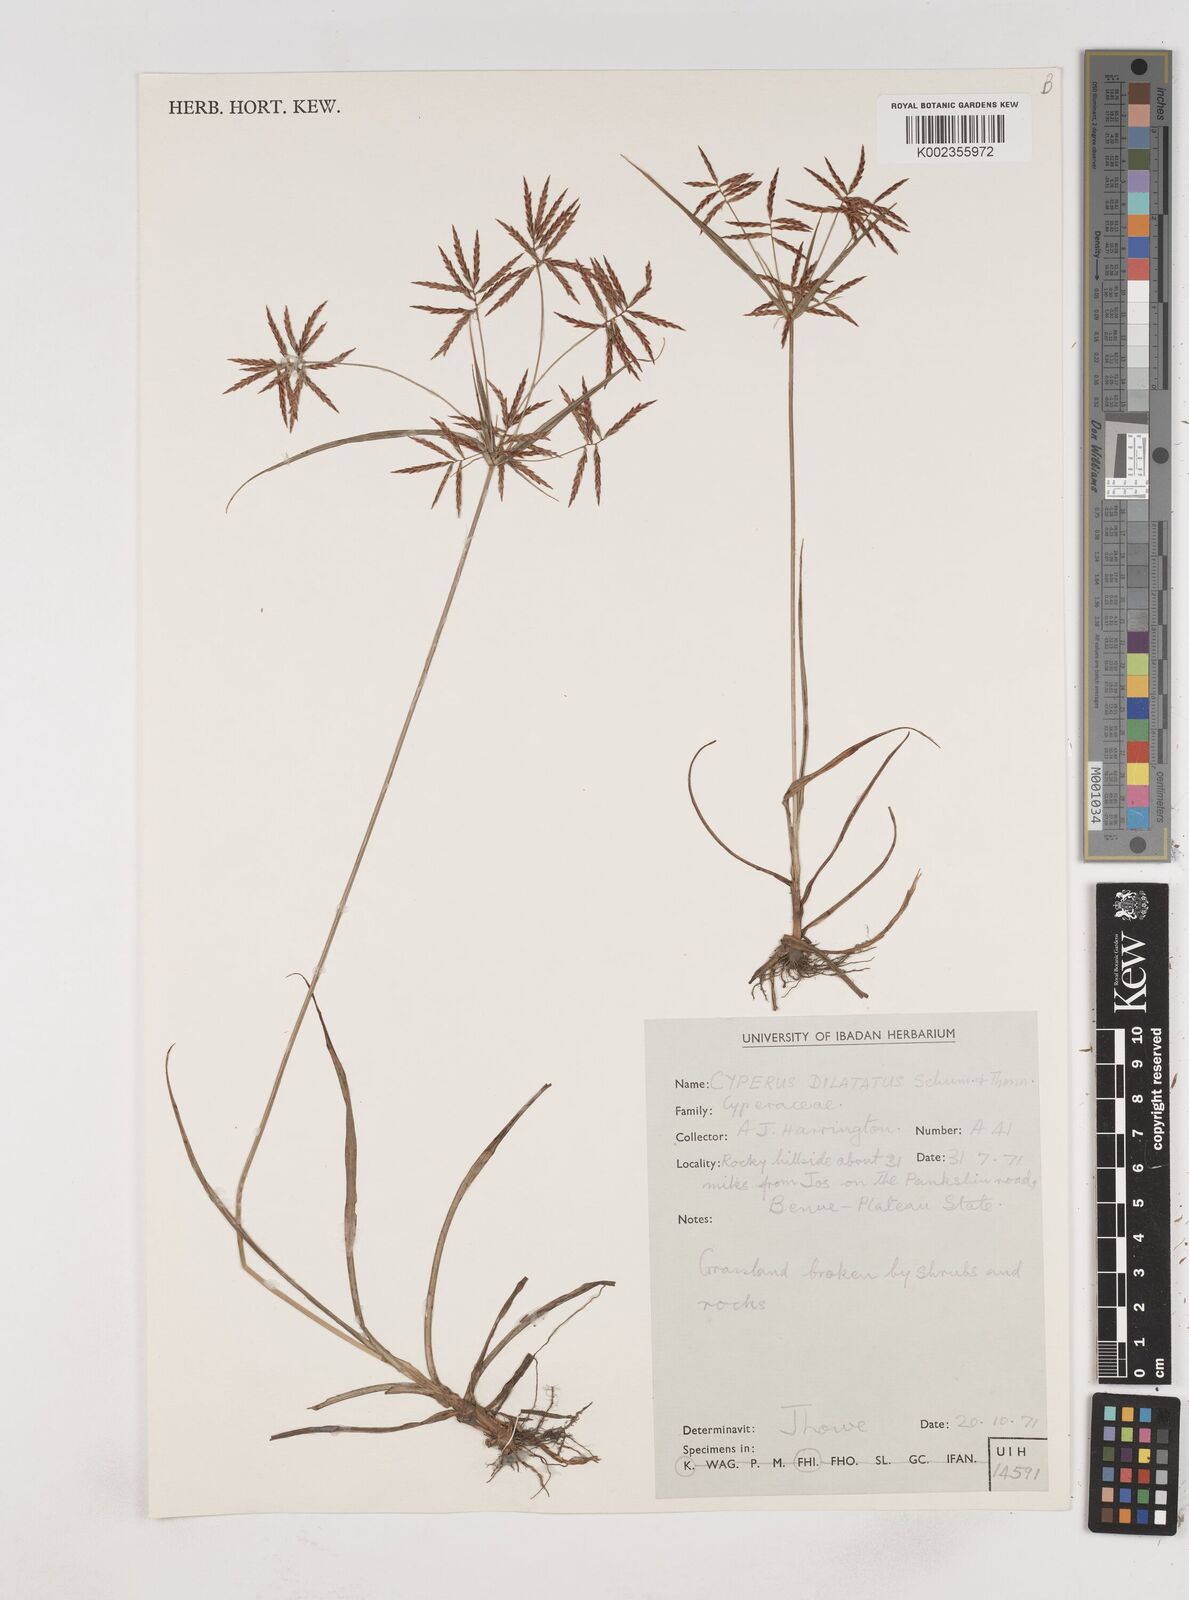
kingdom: Plantae
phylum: Tracheophyta
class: Liliopsida
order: Poales
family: Cyperaceae
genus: Cyperus
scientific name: Cyperus dilatatus
